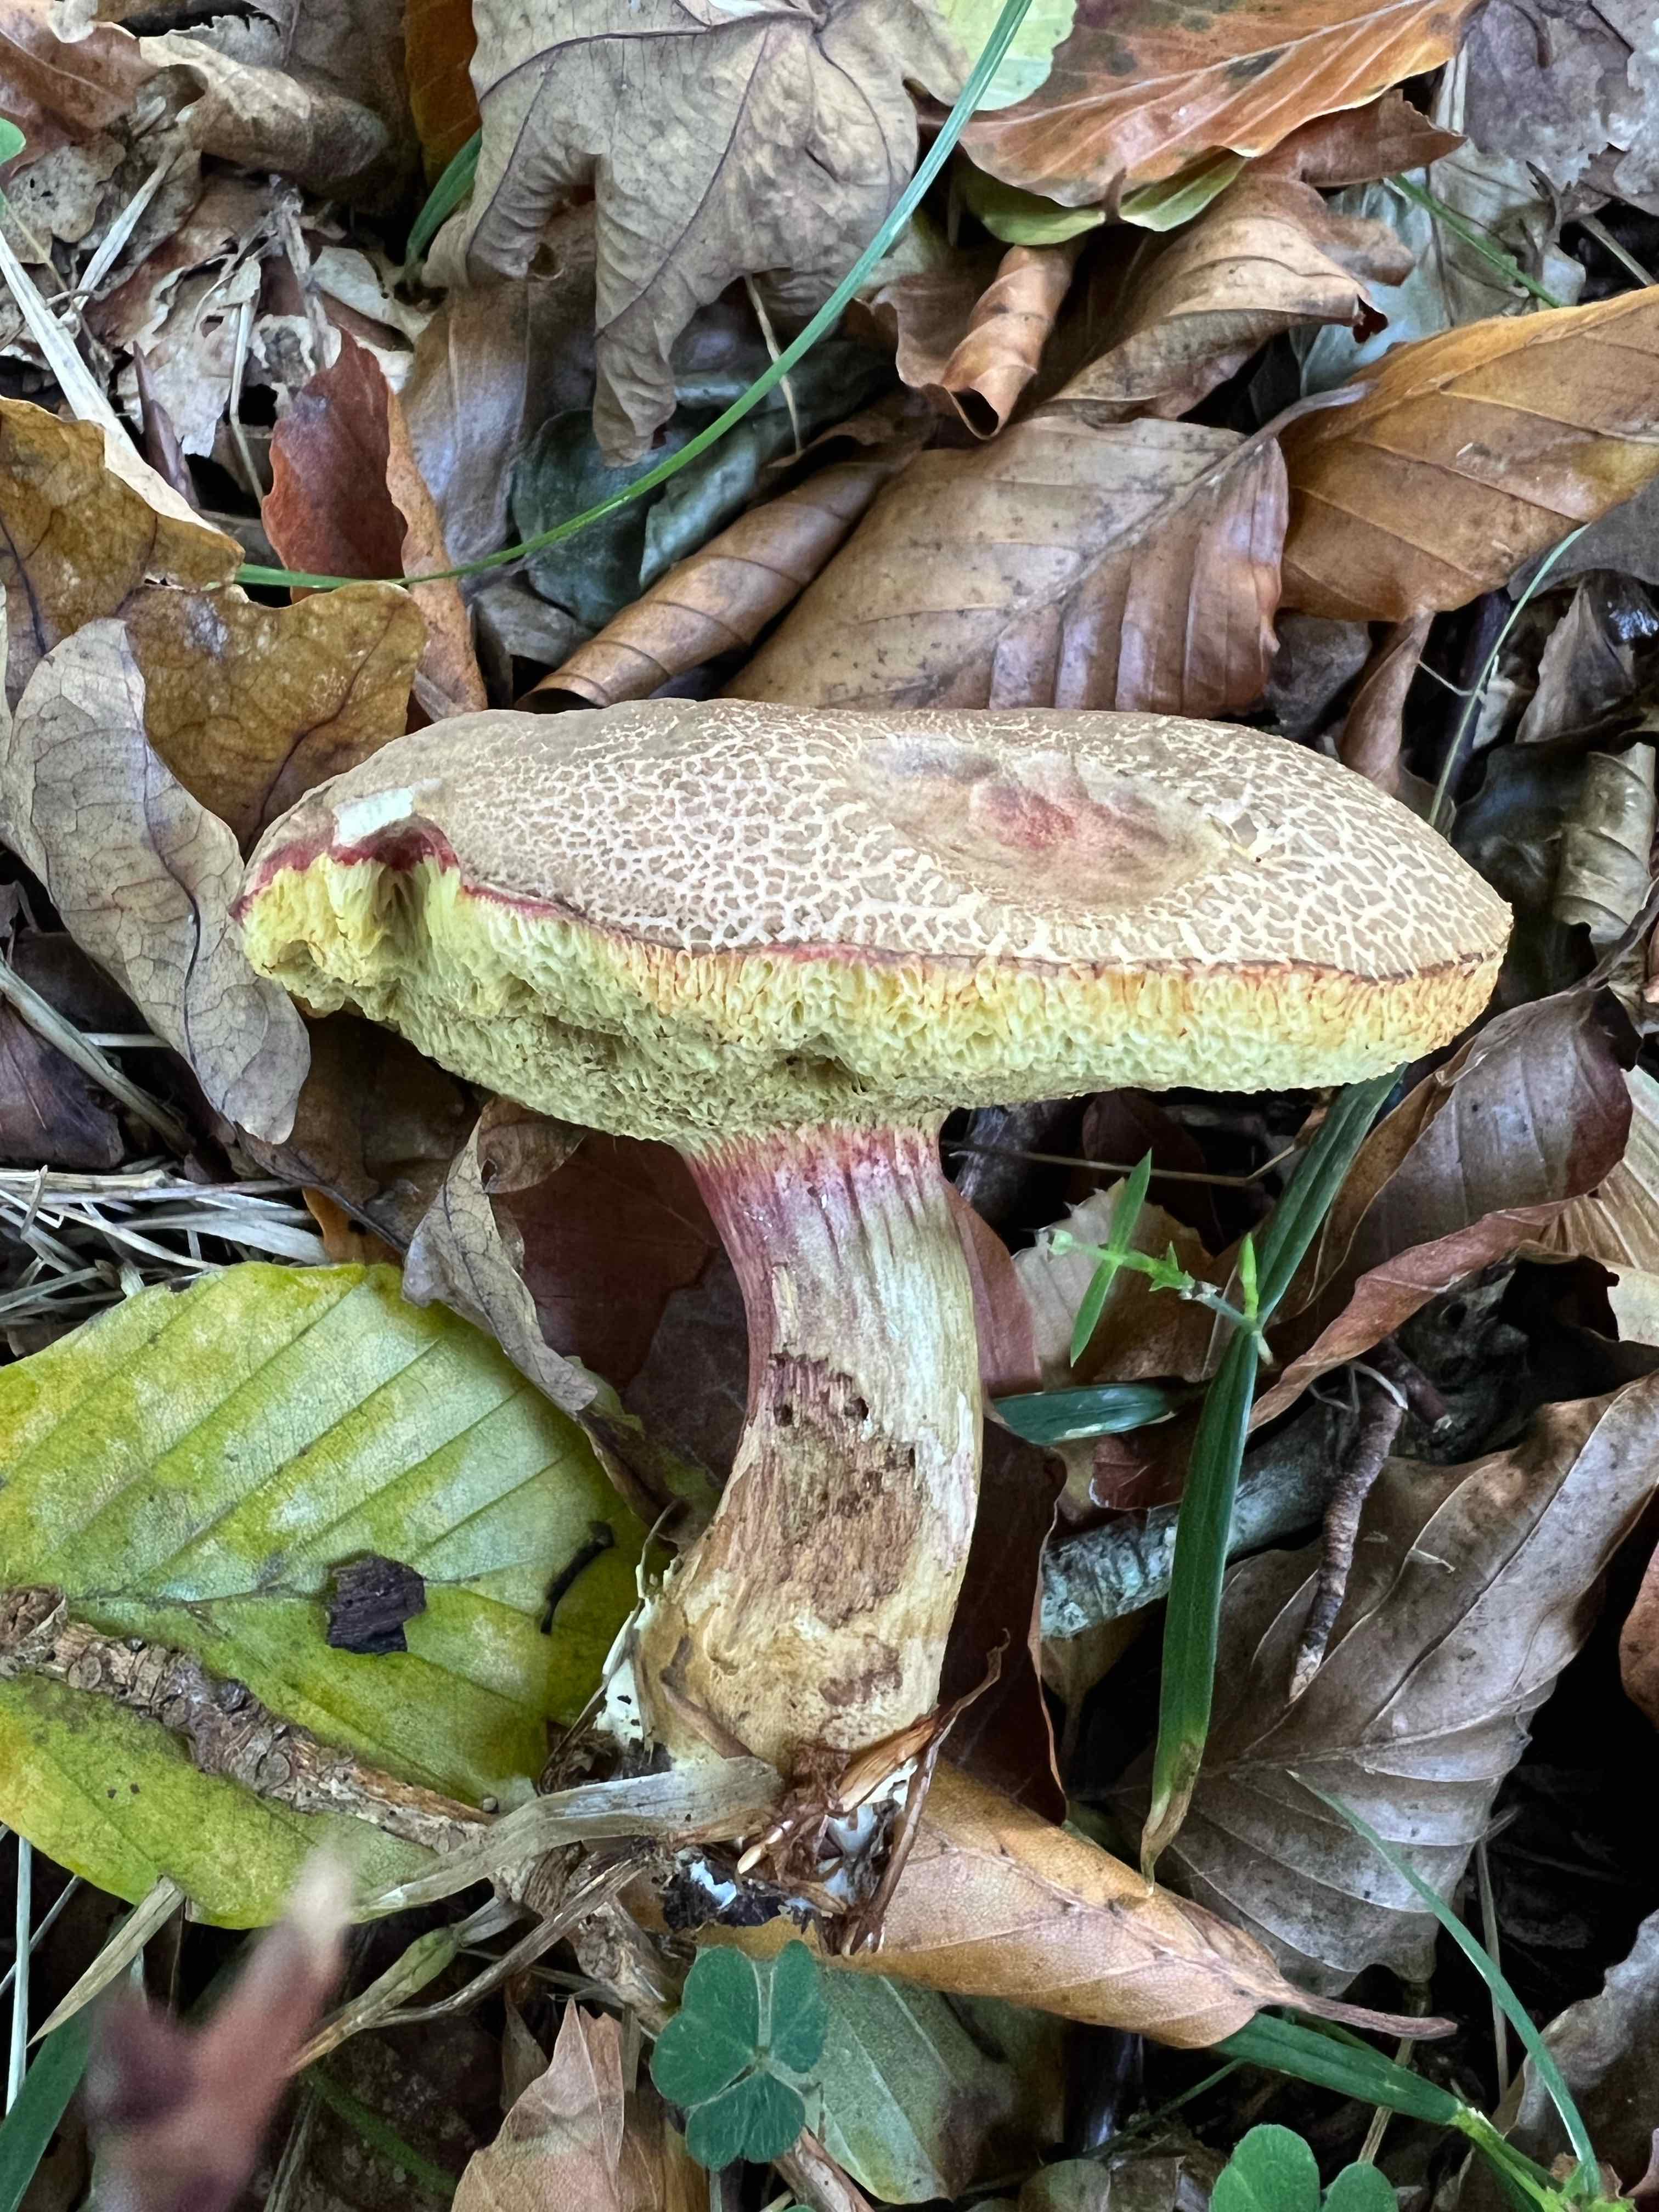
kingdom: Fungi
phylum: Basidiomycota
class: Agaricomycetes
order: Boletales
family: Boletaceae
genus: Xerocomellus
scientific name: Xerocomellus porosporus
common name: hvidsprukken rørhat
